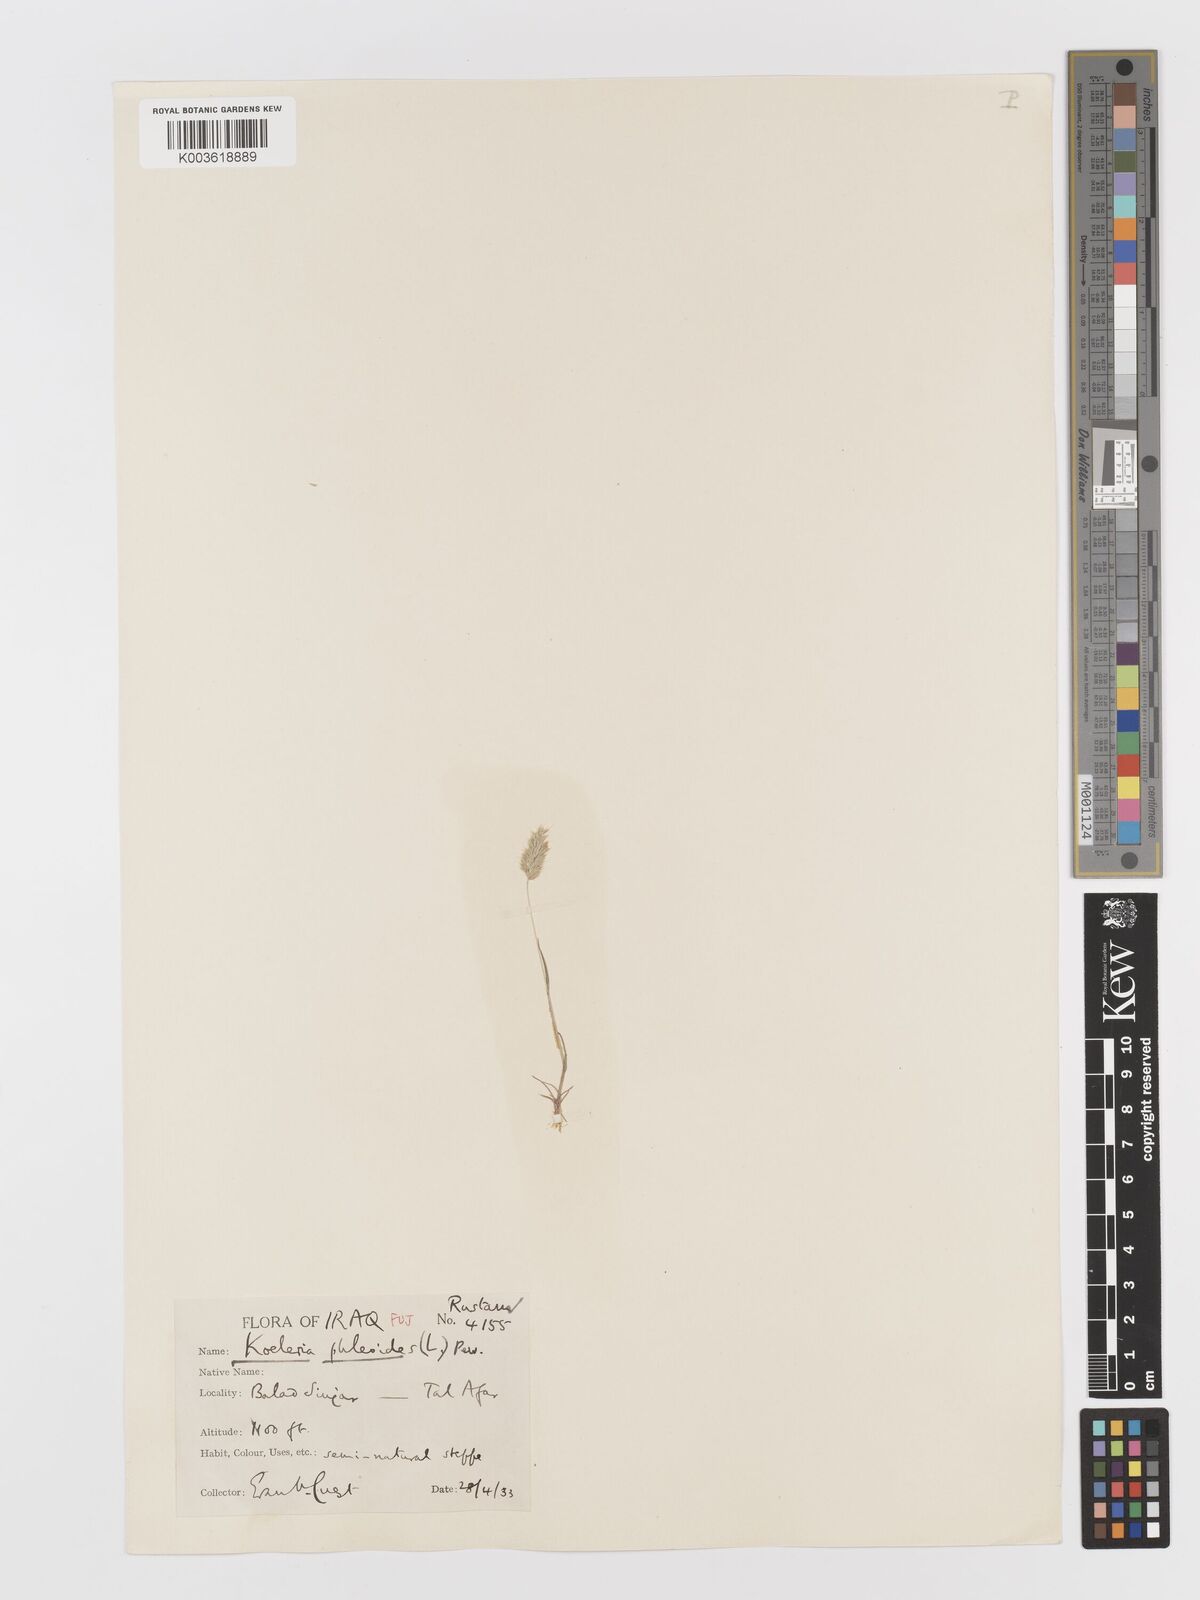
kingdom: Plantae
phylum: Tracheophyta
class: Liliopsida
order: Poales
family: Poaceae
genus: Rostraria
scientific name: Rostraria cristata
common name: Mediterranean hair-grass
